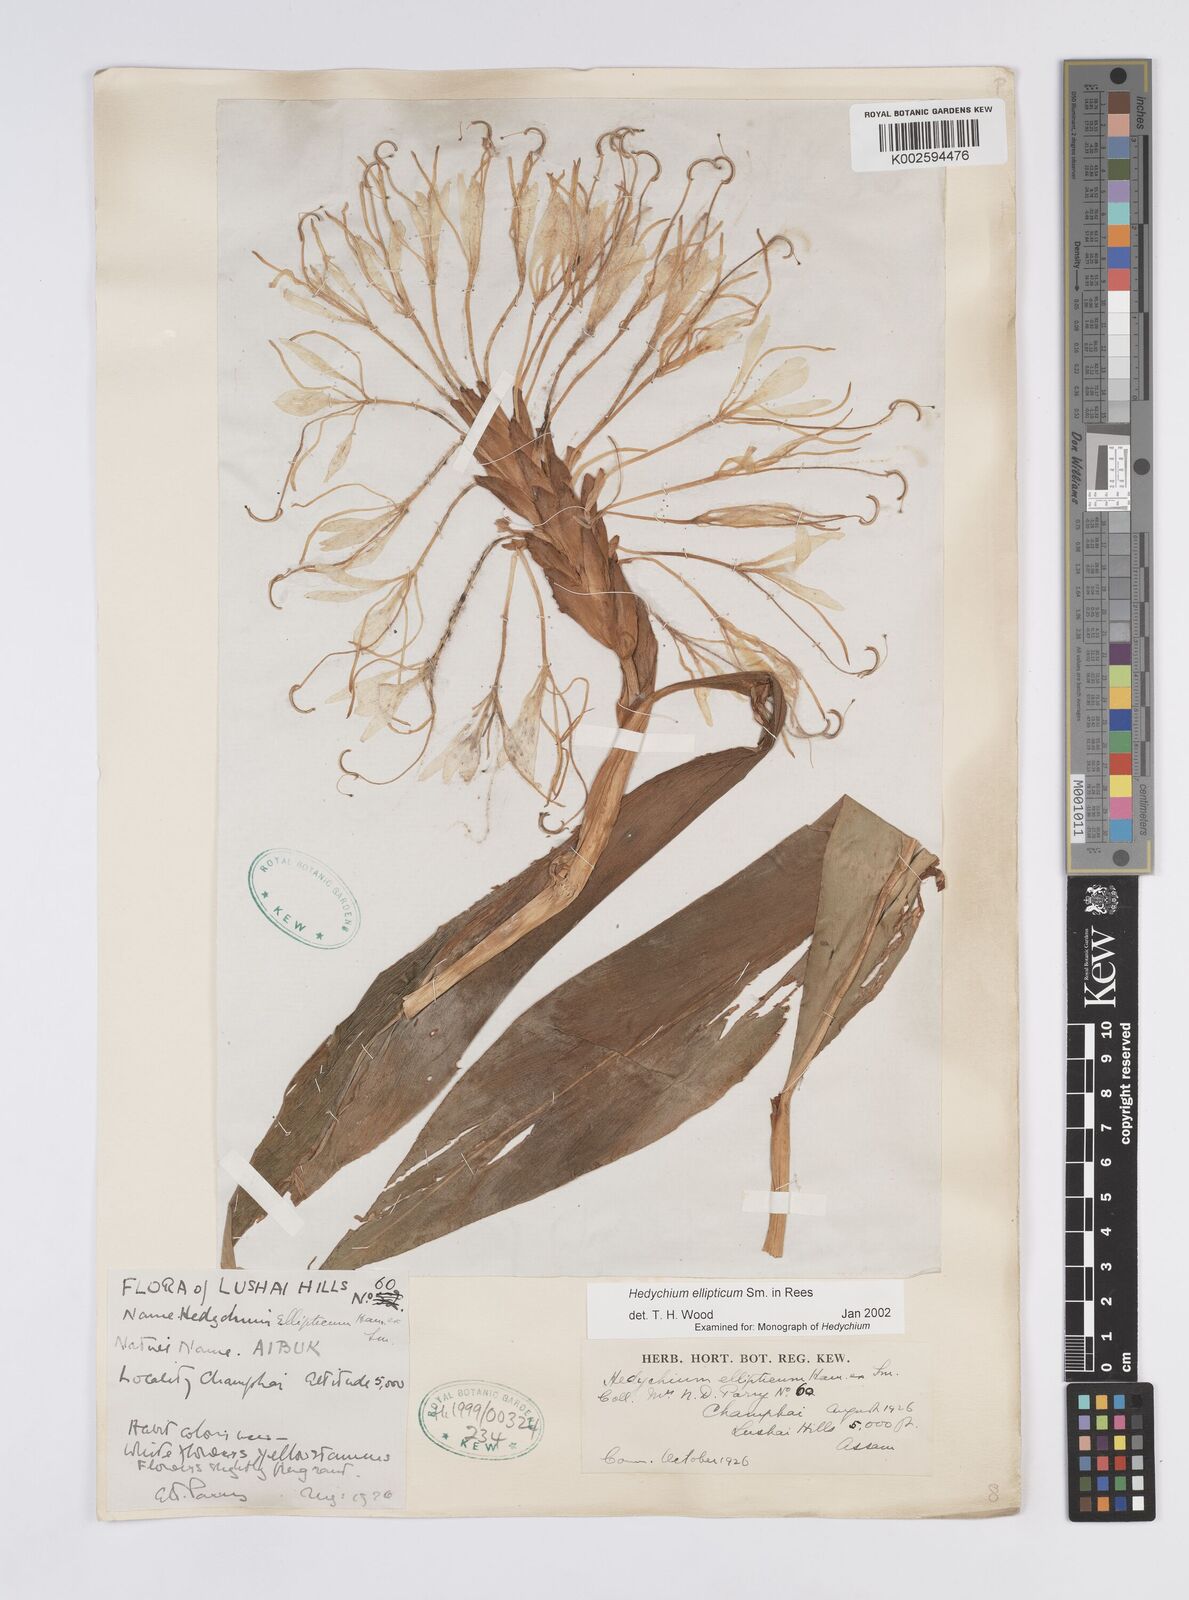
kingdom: Plantae
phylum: Tracheophyta
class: Liliopsida
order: Zingiberales
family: Zingiberaceae
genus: Hedychium
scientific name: Hedychium ellipticum
